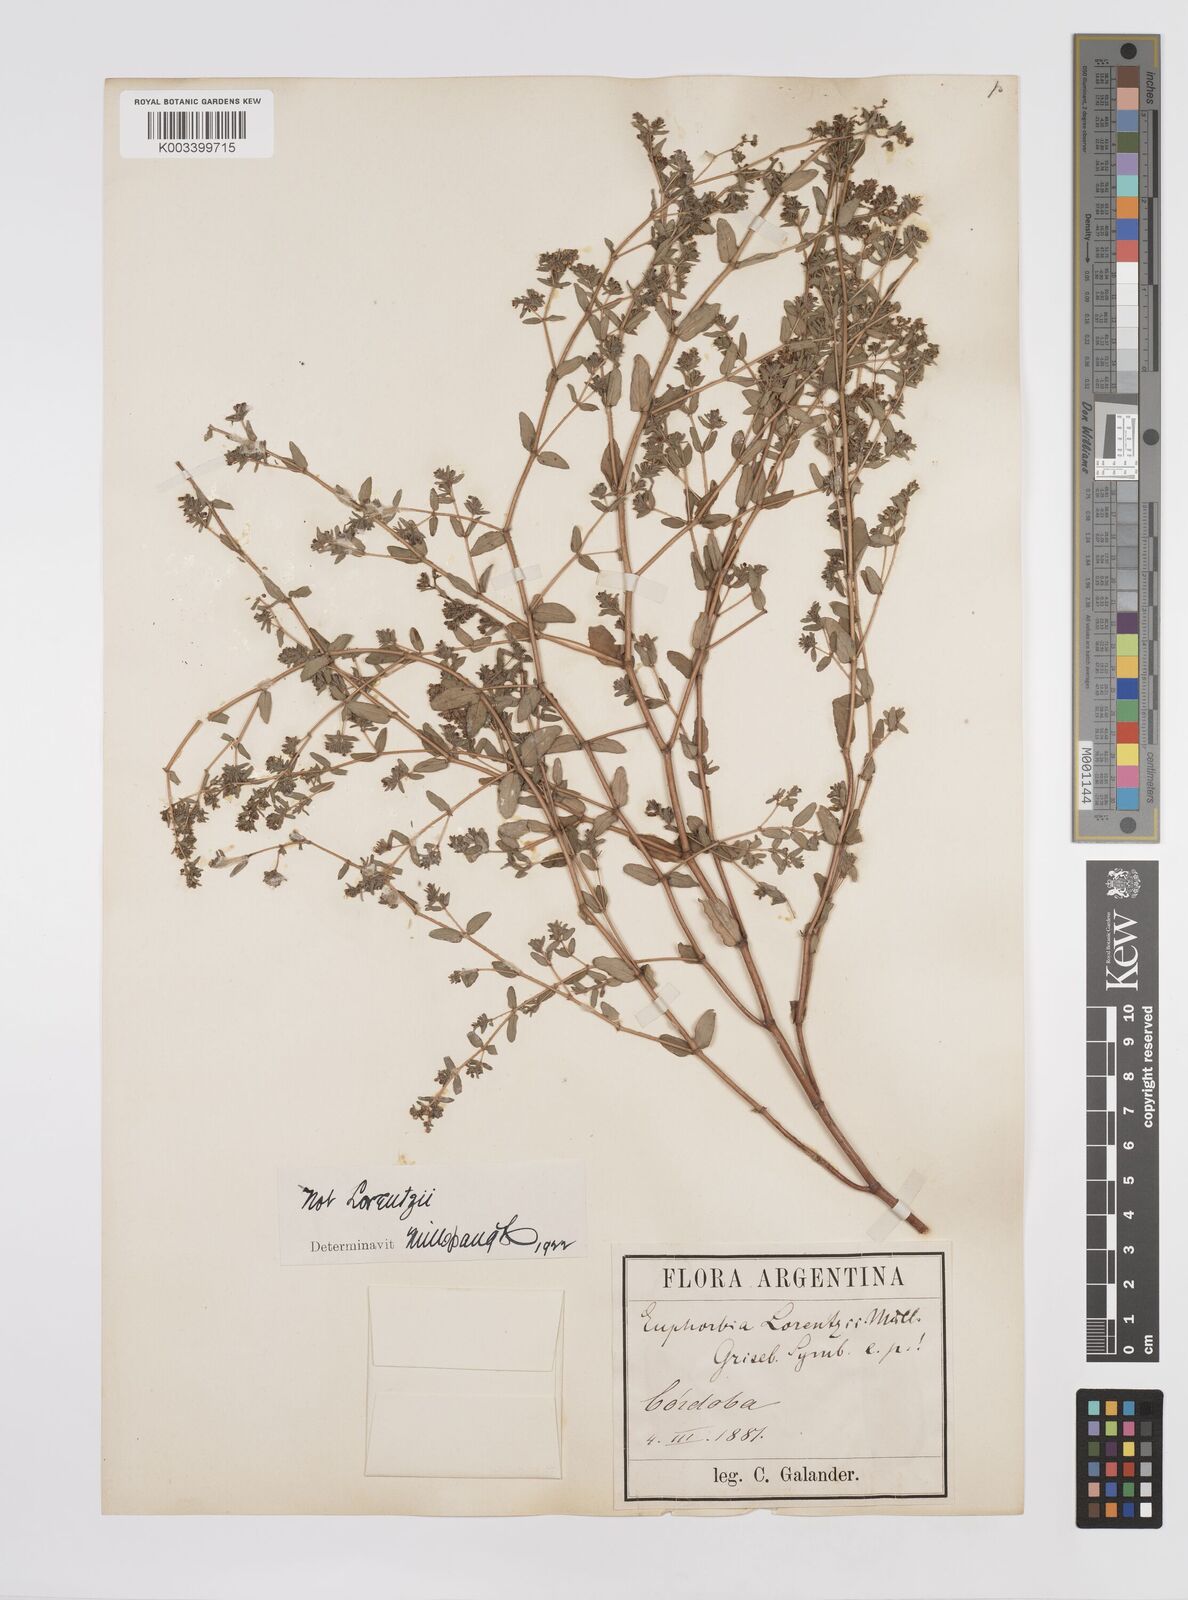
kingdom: Plantae
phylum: Tracheophyta
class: Magnoliopsida
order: Malpighiales
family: Euphorbiaceae
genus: Euphorbia
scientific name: Euphorbia lorentzii
